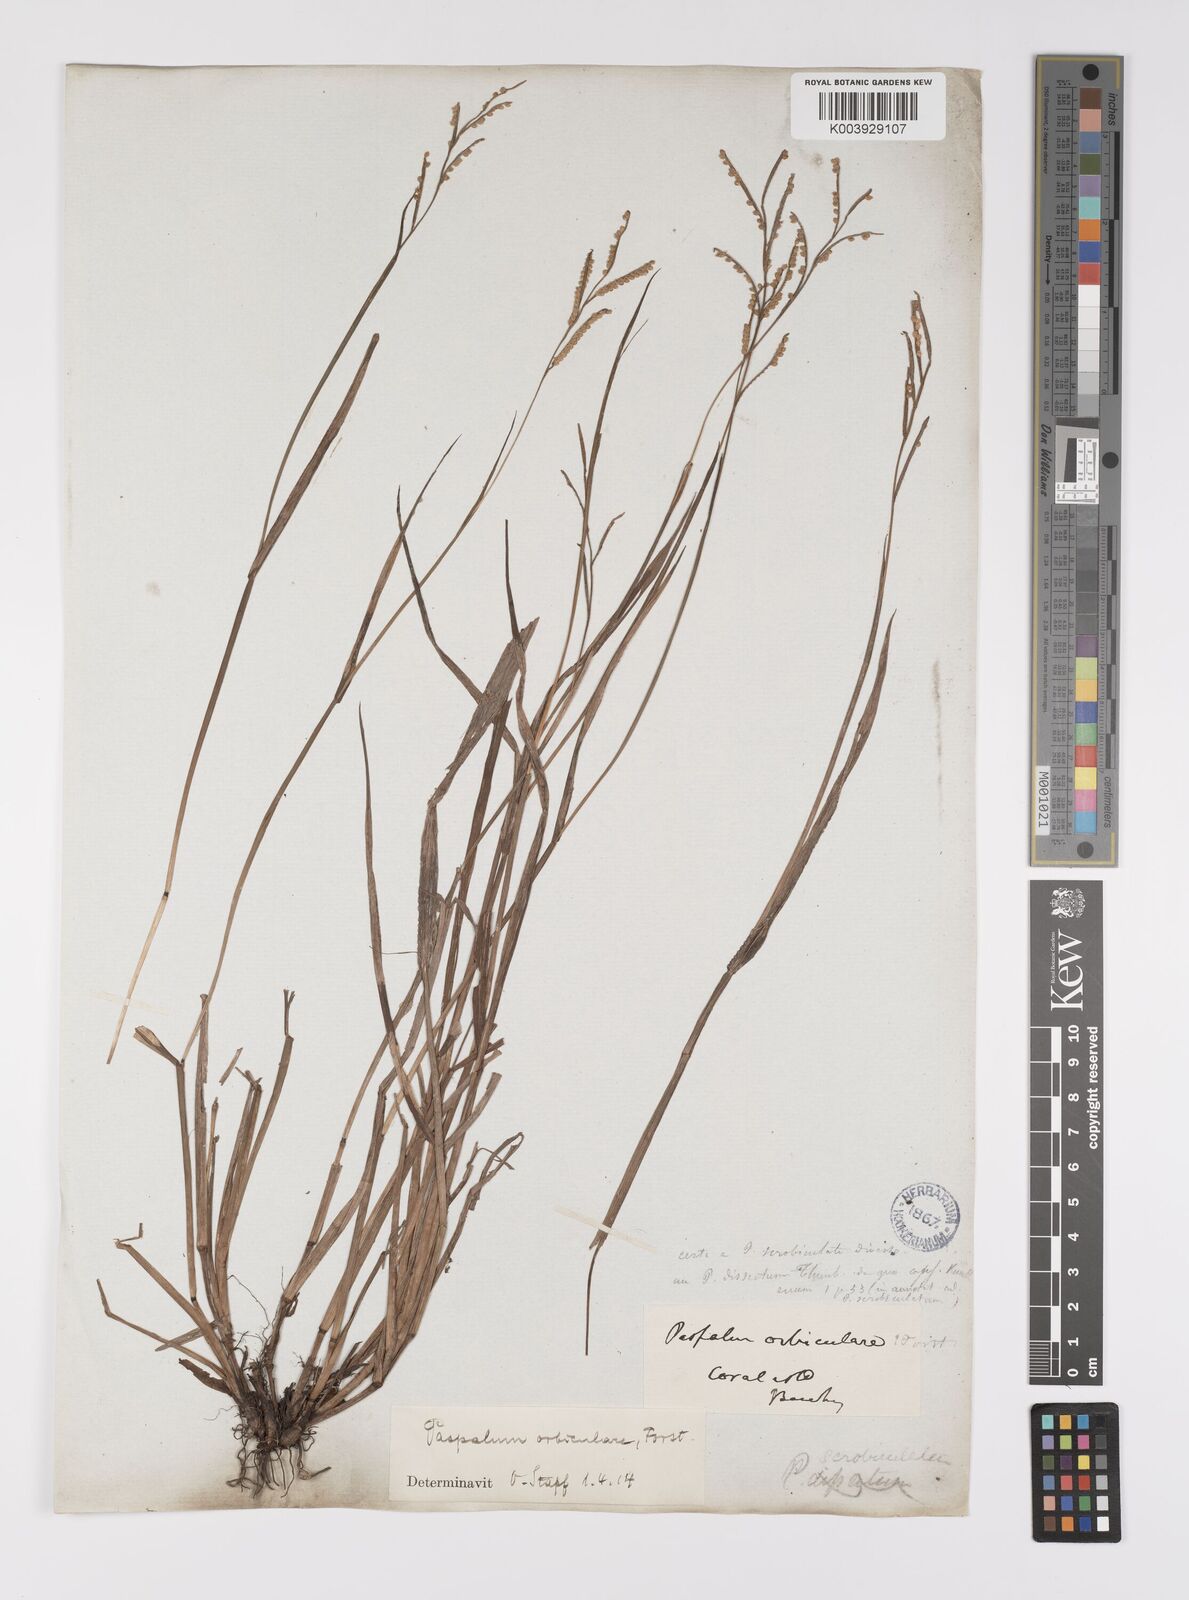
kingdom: Plantae
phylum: Tracheophyta
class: Liliopsida
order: Poales
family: Poaceae
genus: Paspalum
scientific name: Paspalum scrobiculatum
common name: Kodo millet
